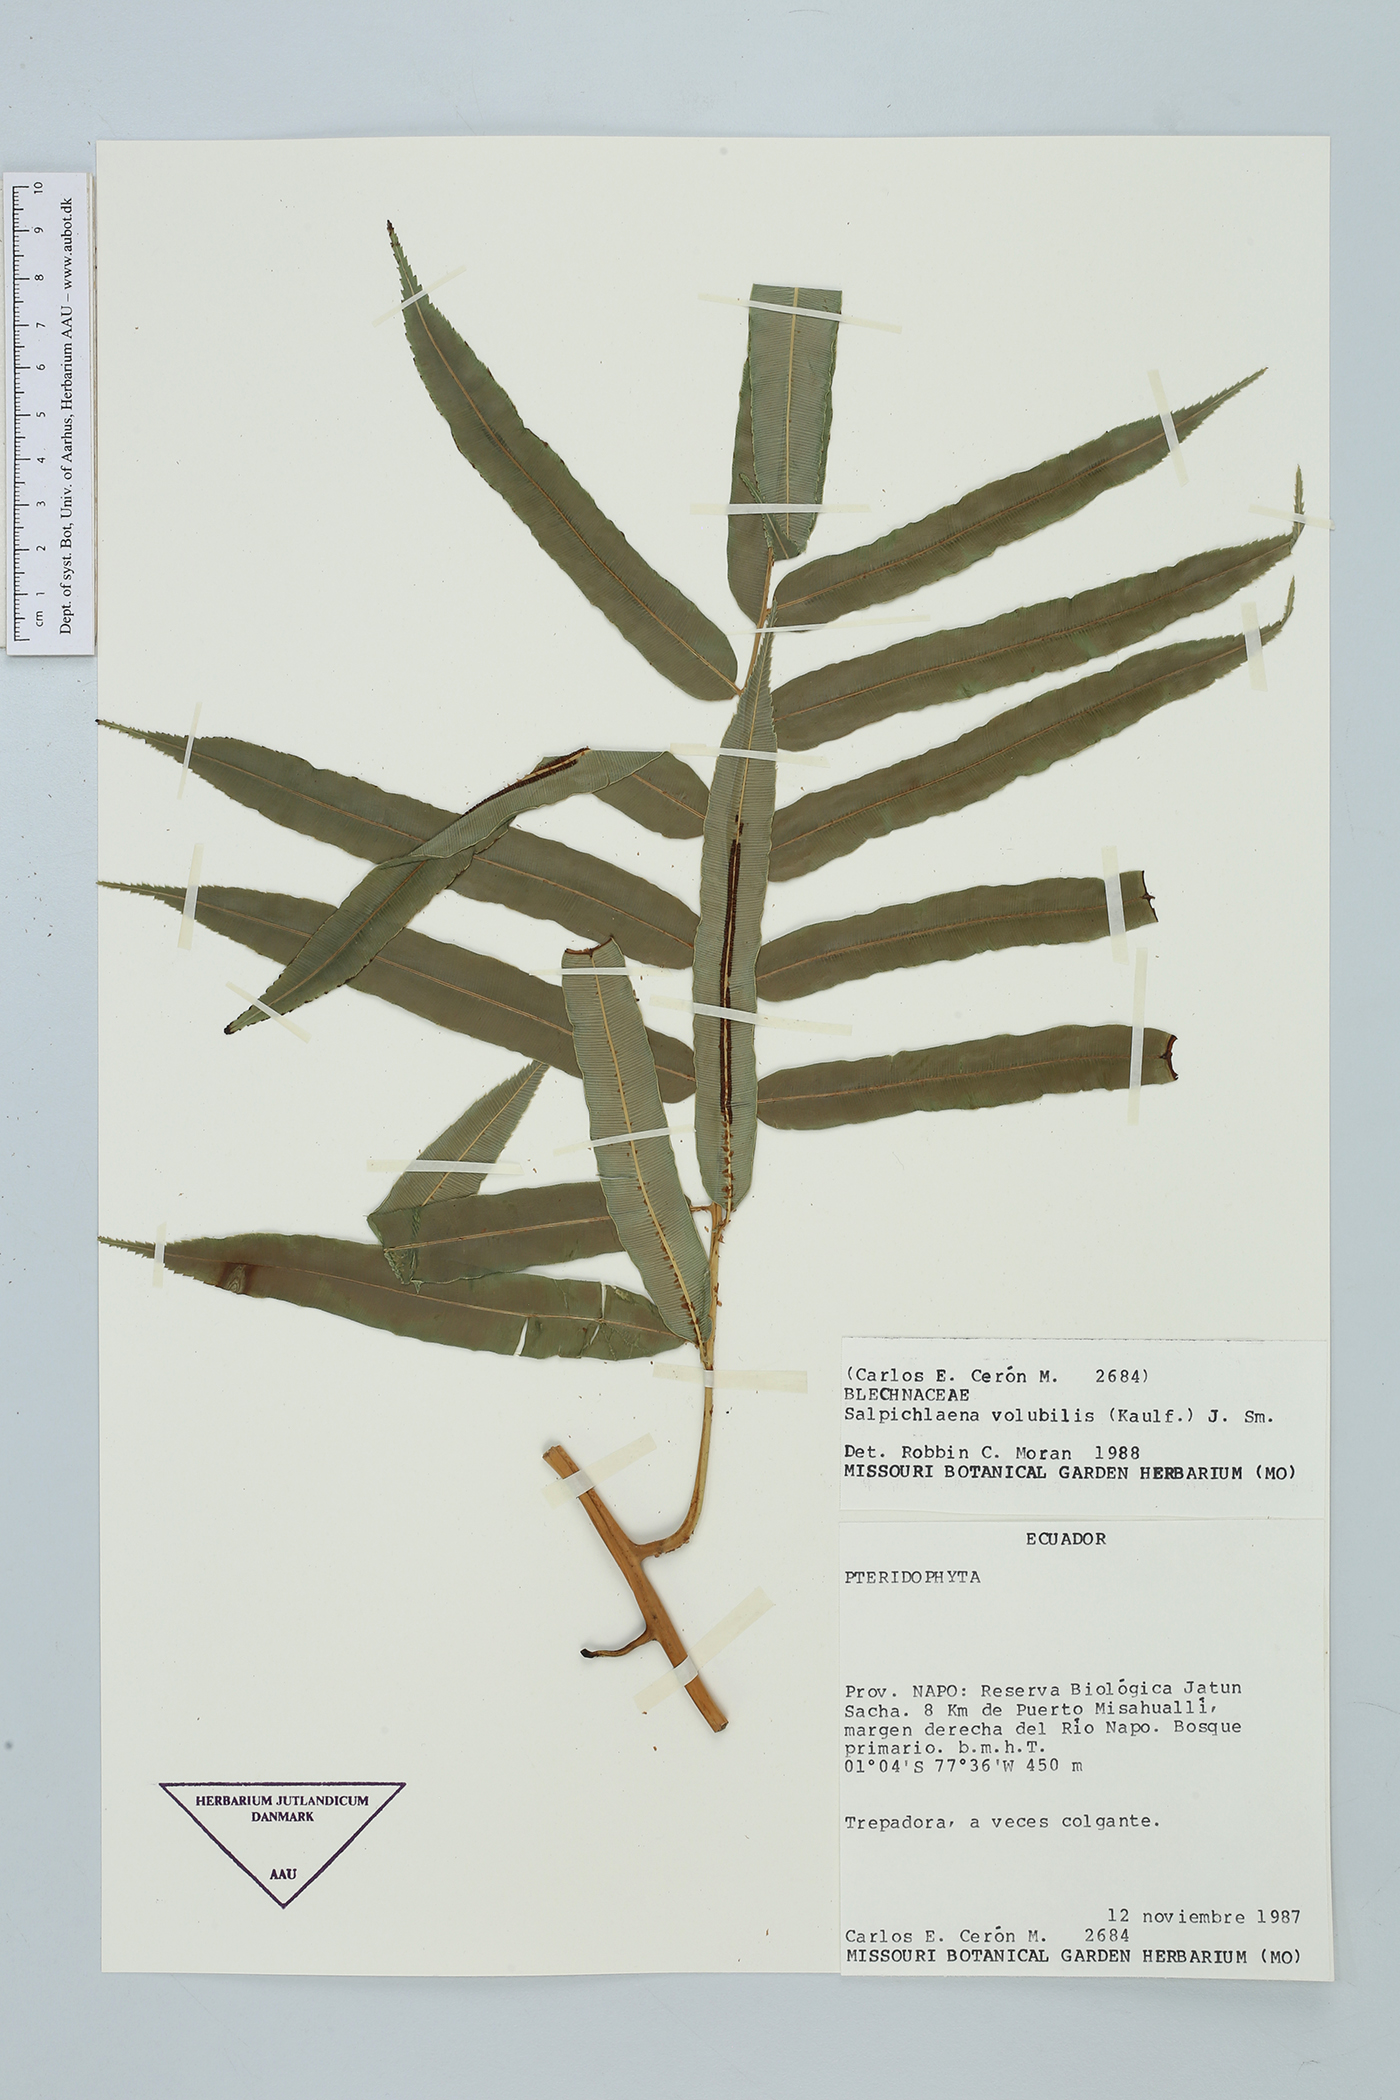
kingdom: Plantae
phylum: Tracheophyta
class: Polypodiopsida
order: Polypodiales
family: Blechnaceae
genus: Salpichlaena
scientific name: Salpichlaena volubilis
